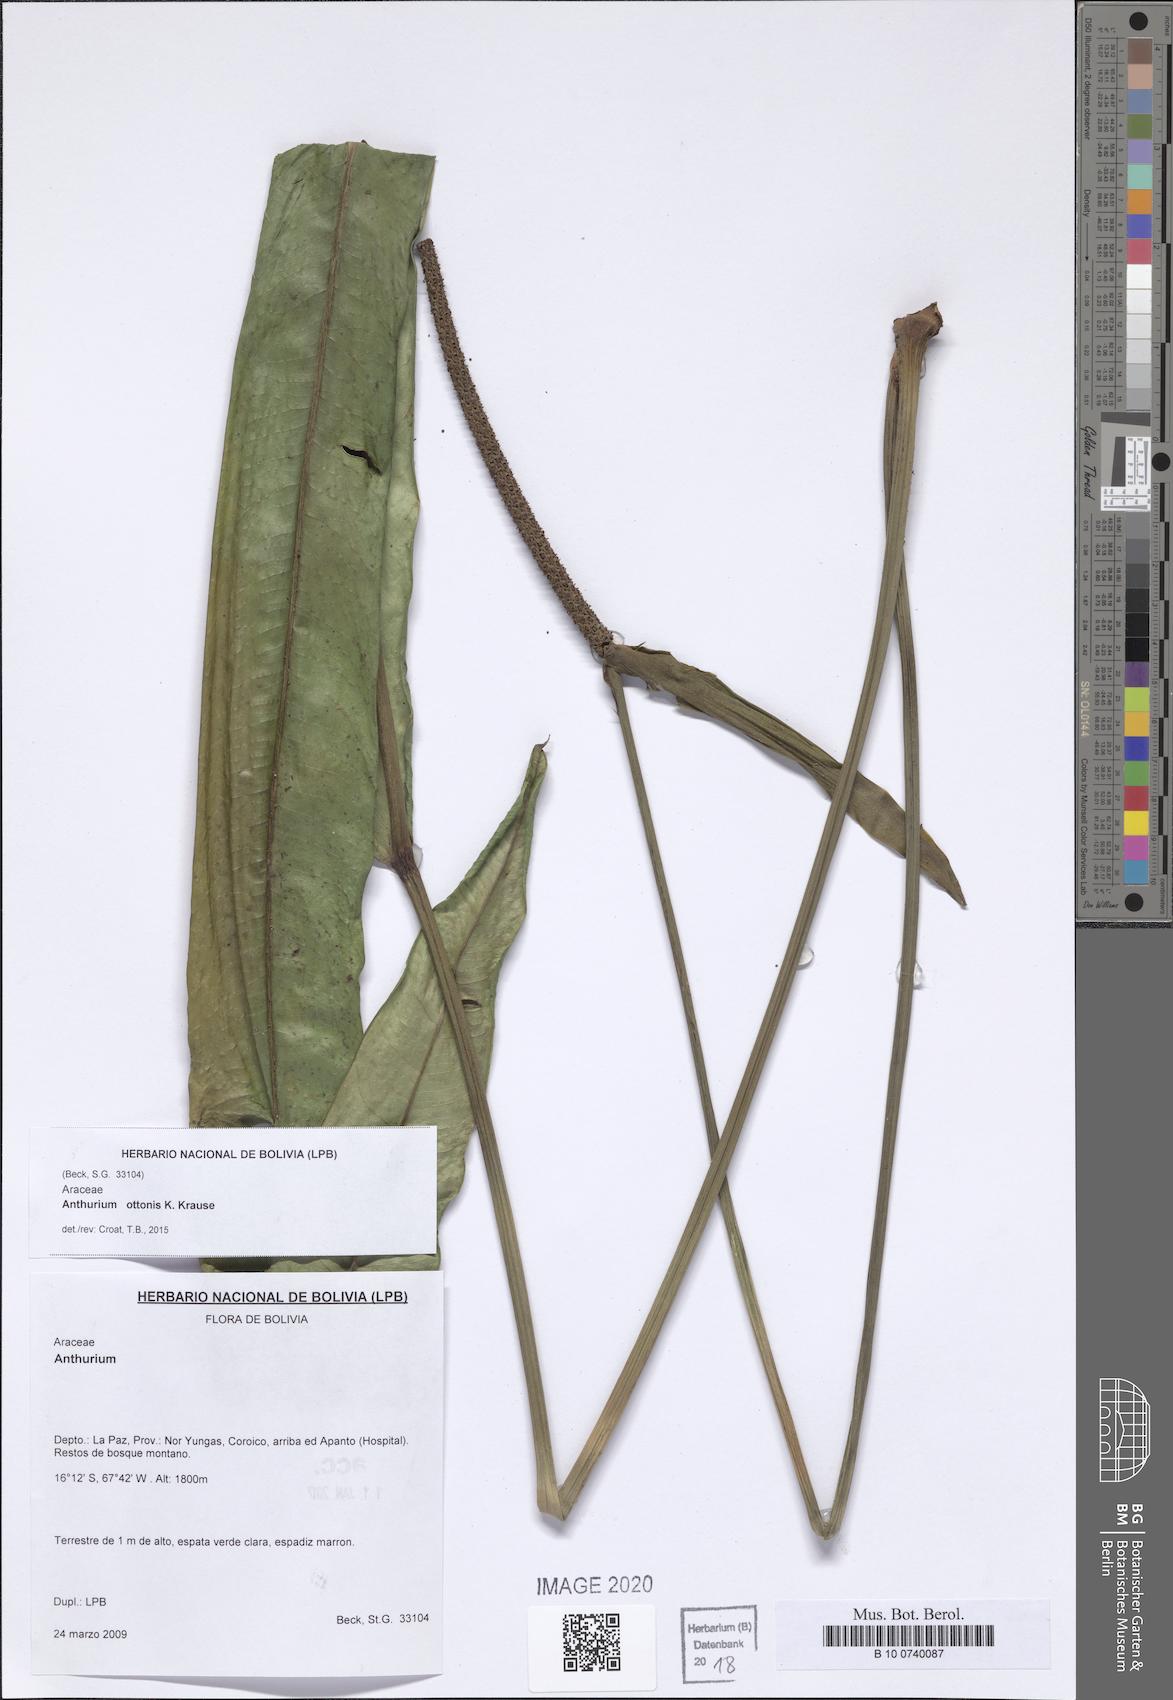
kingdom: Plantae
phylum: Tracheophyta
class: Liliopsida
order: Alismatales
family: Araceae
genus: Anthurium
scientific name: Anthurium ottonis
